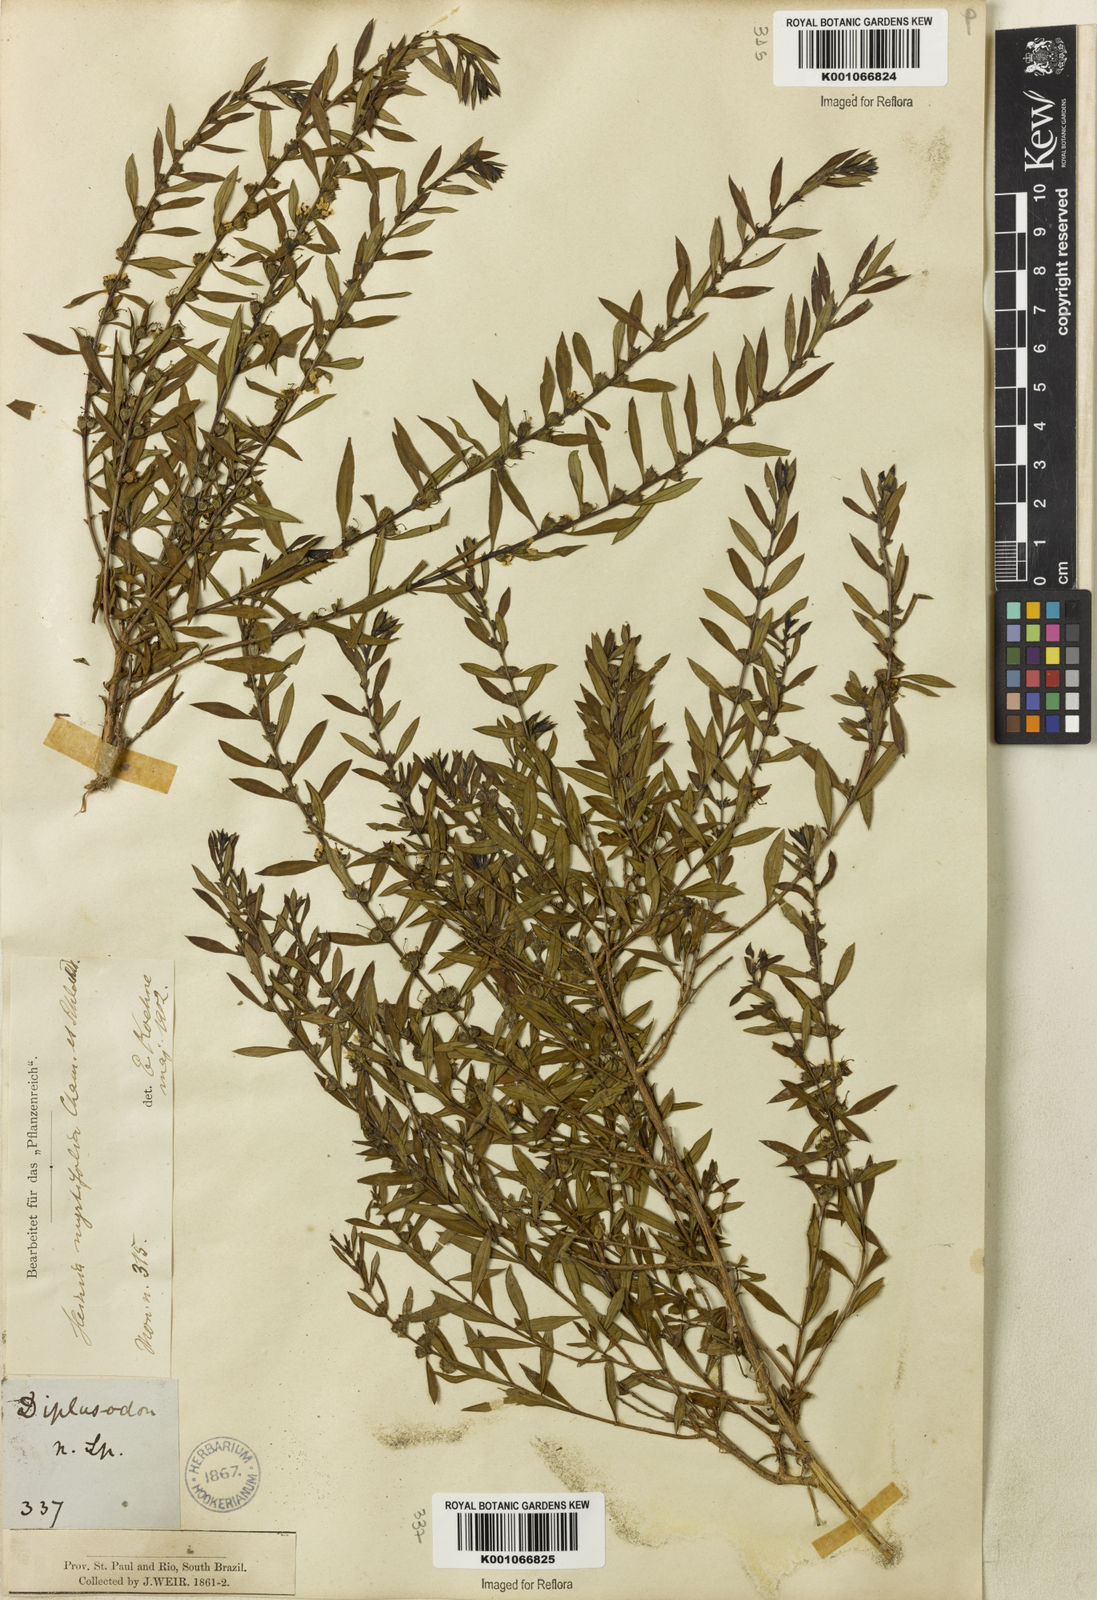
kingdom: Plantae
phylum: Tracheophyta
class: Magnoliopsida
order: Myrtales
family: Lythraceae
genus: Heimia
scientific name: Heimia apetala
